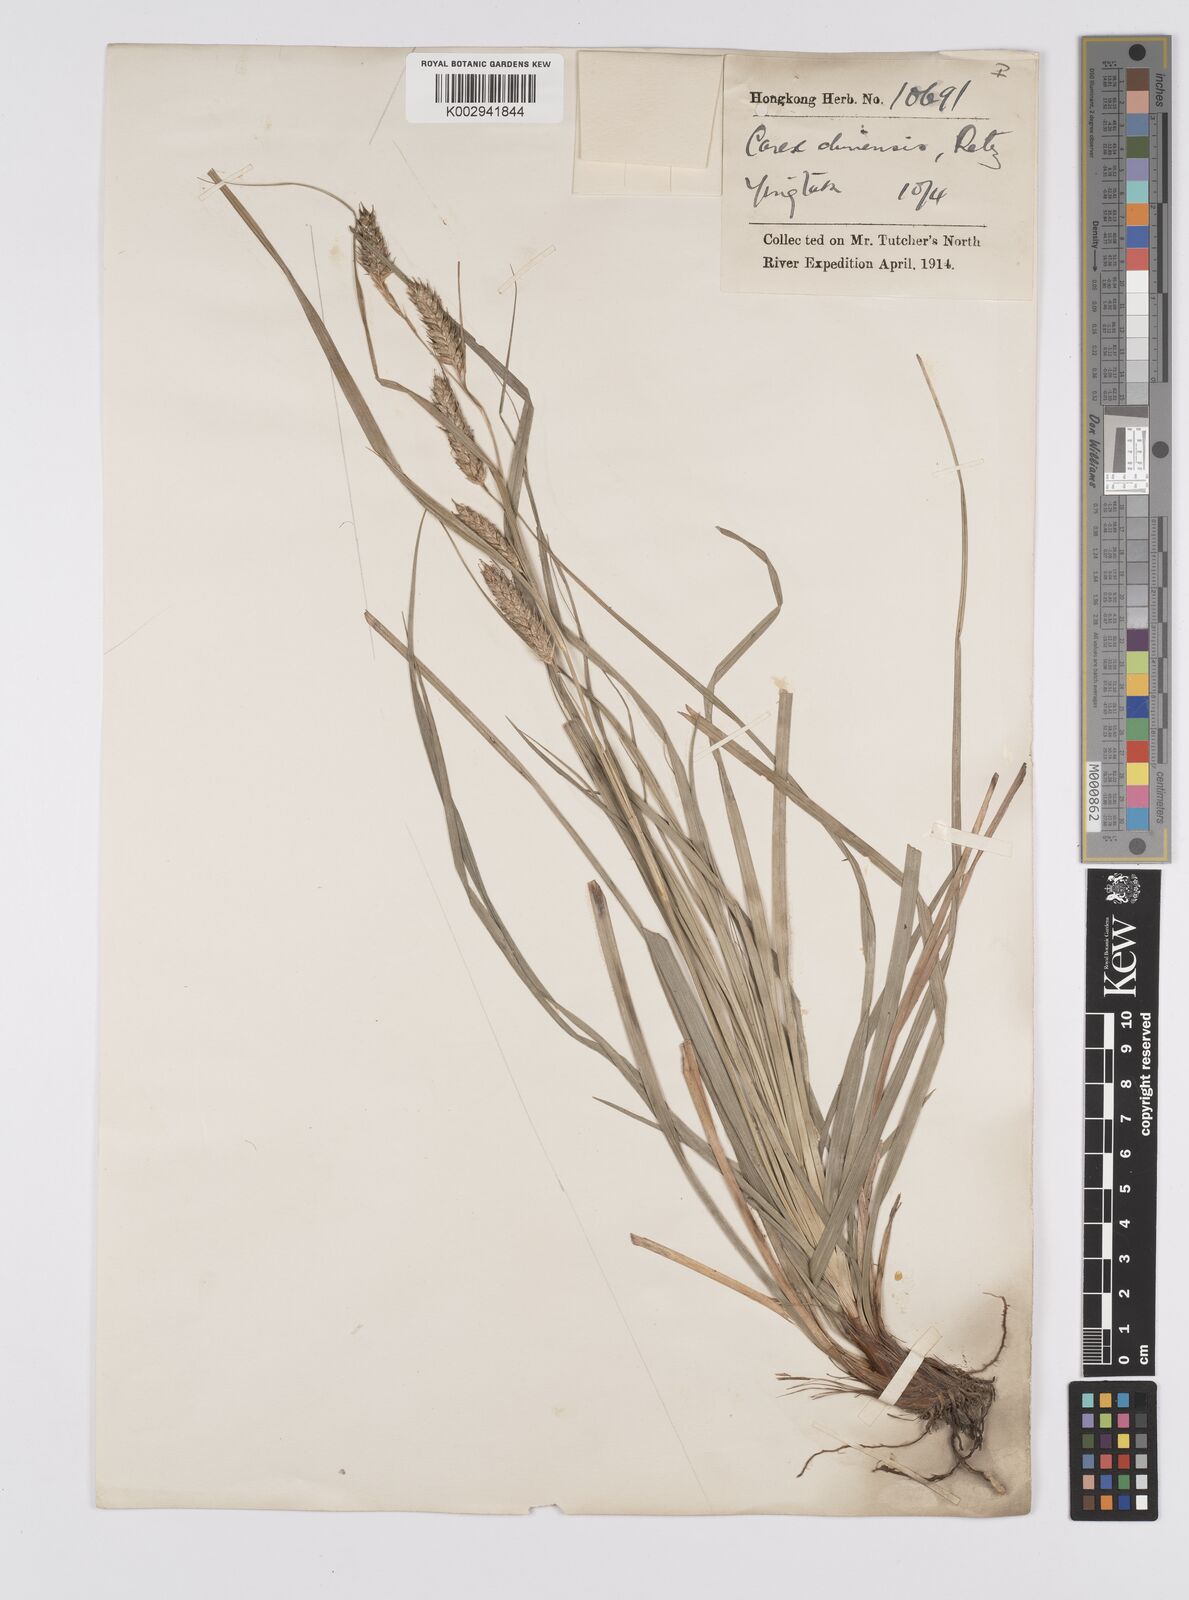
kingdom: Plantae
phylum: Tracheophyta
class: Liliopsida
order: Poales
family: Cyperaceae
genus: Carex
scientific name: Carex spachiana
